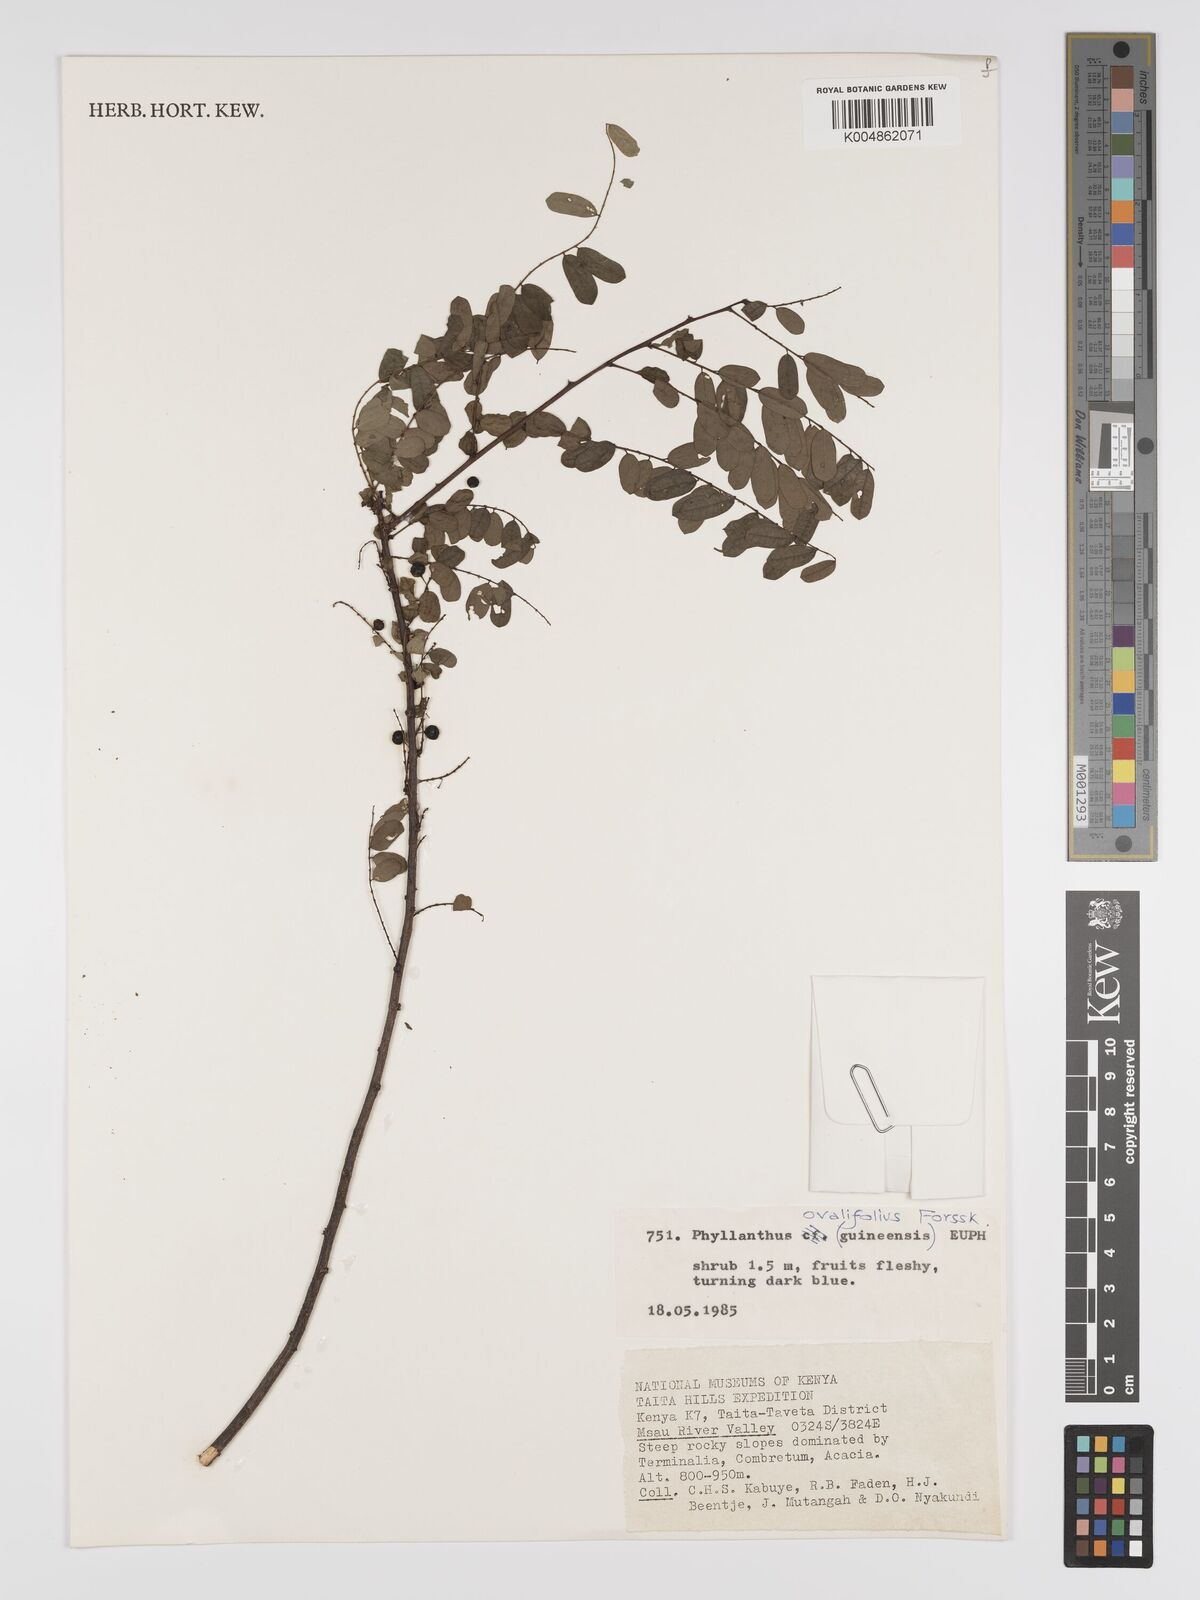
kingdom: Plantae
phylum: Tracheophyta
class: Magnoliopsida
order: Malpighiales
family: Phyllanthaceae
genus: Phyllanthus
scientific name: Phyllanthus ovalifolius
